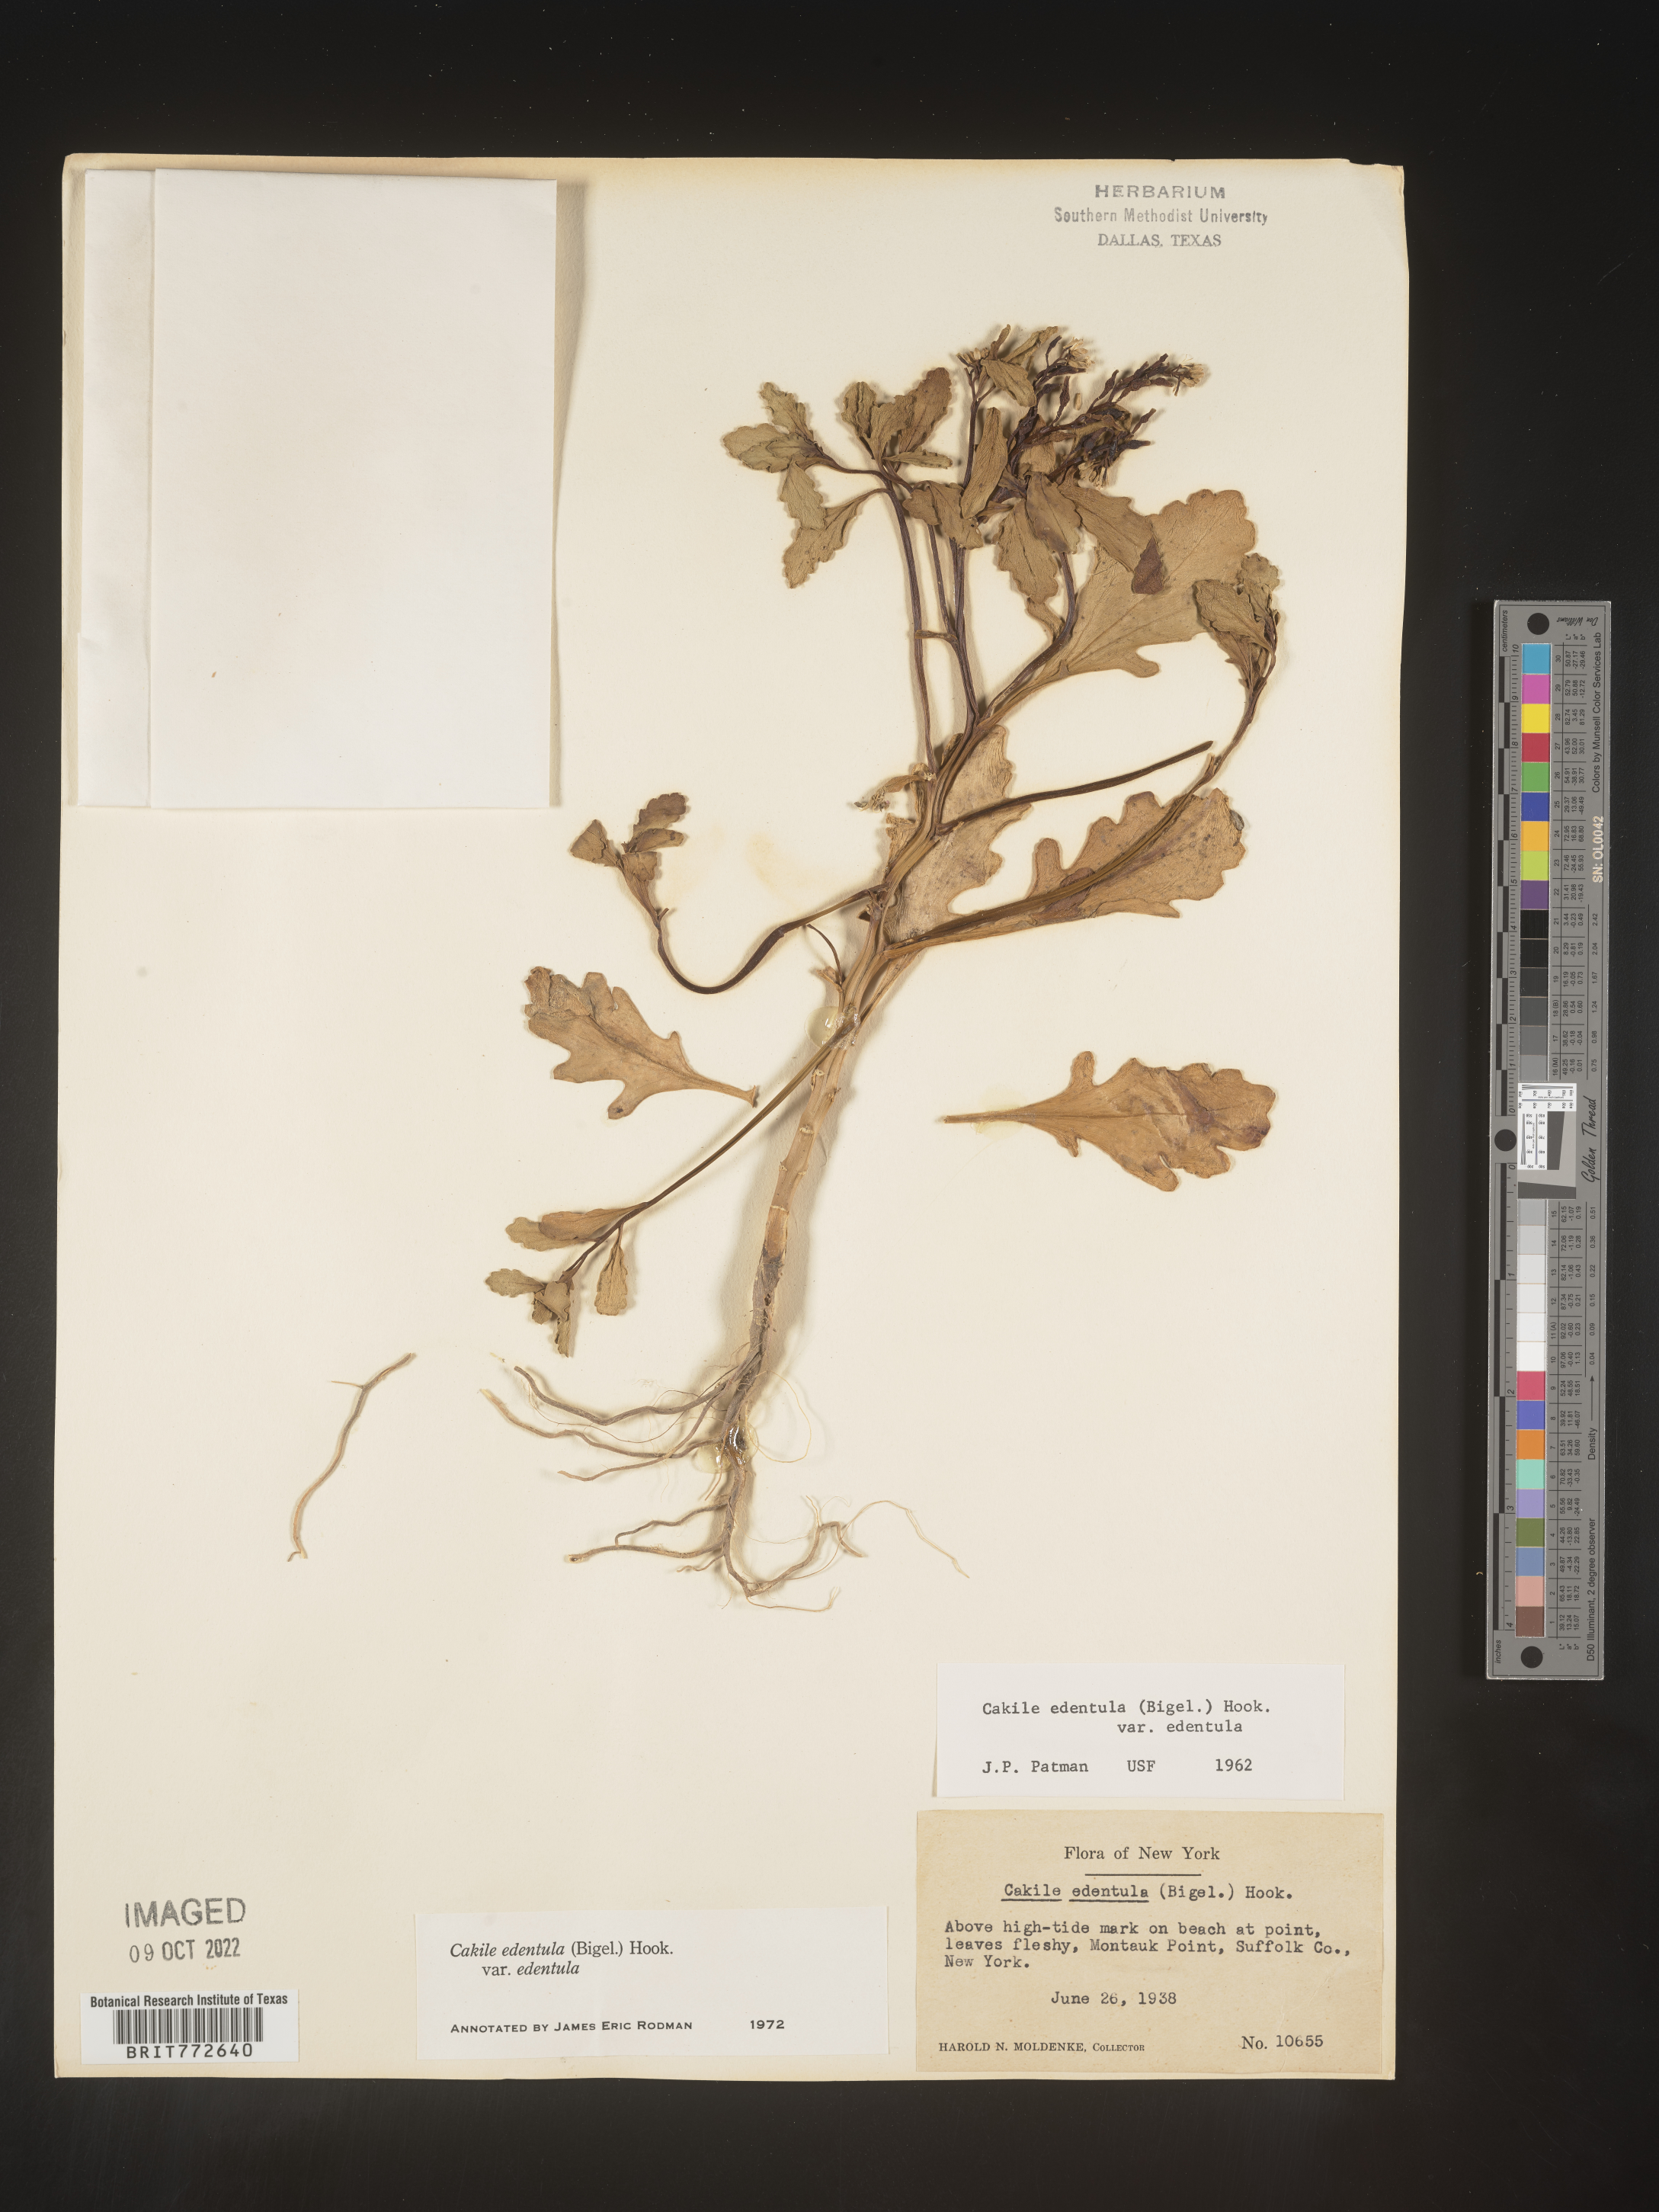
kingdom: Plantae
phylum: Tracheophyta
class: Magnoliopsida
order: Brassicales
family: Brassicaceae
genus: Cakile
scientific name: Cakile edentula
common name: American sea rocket
